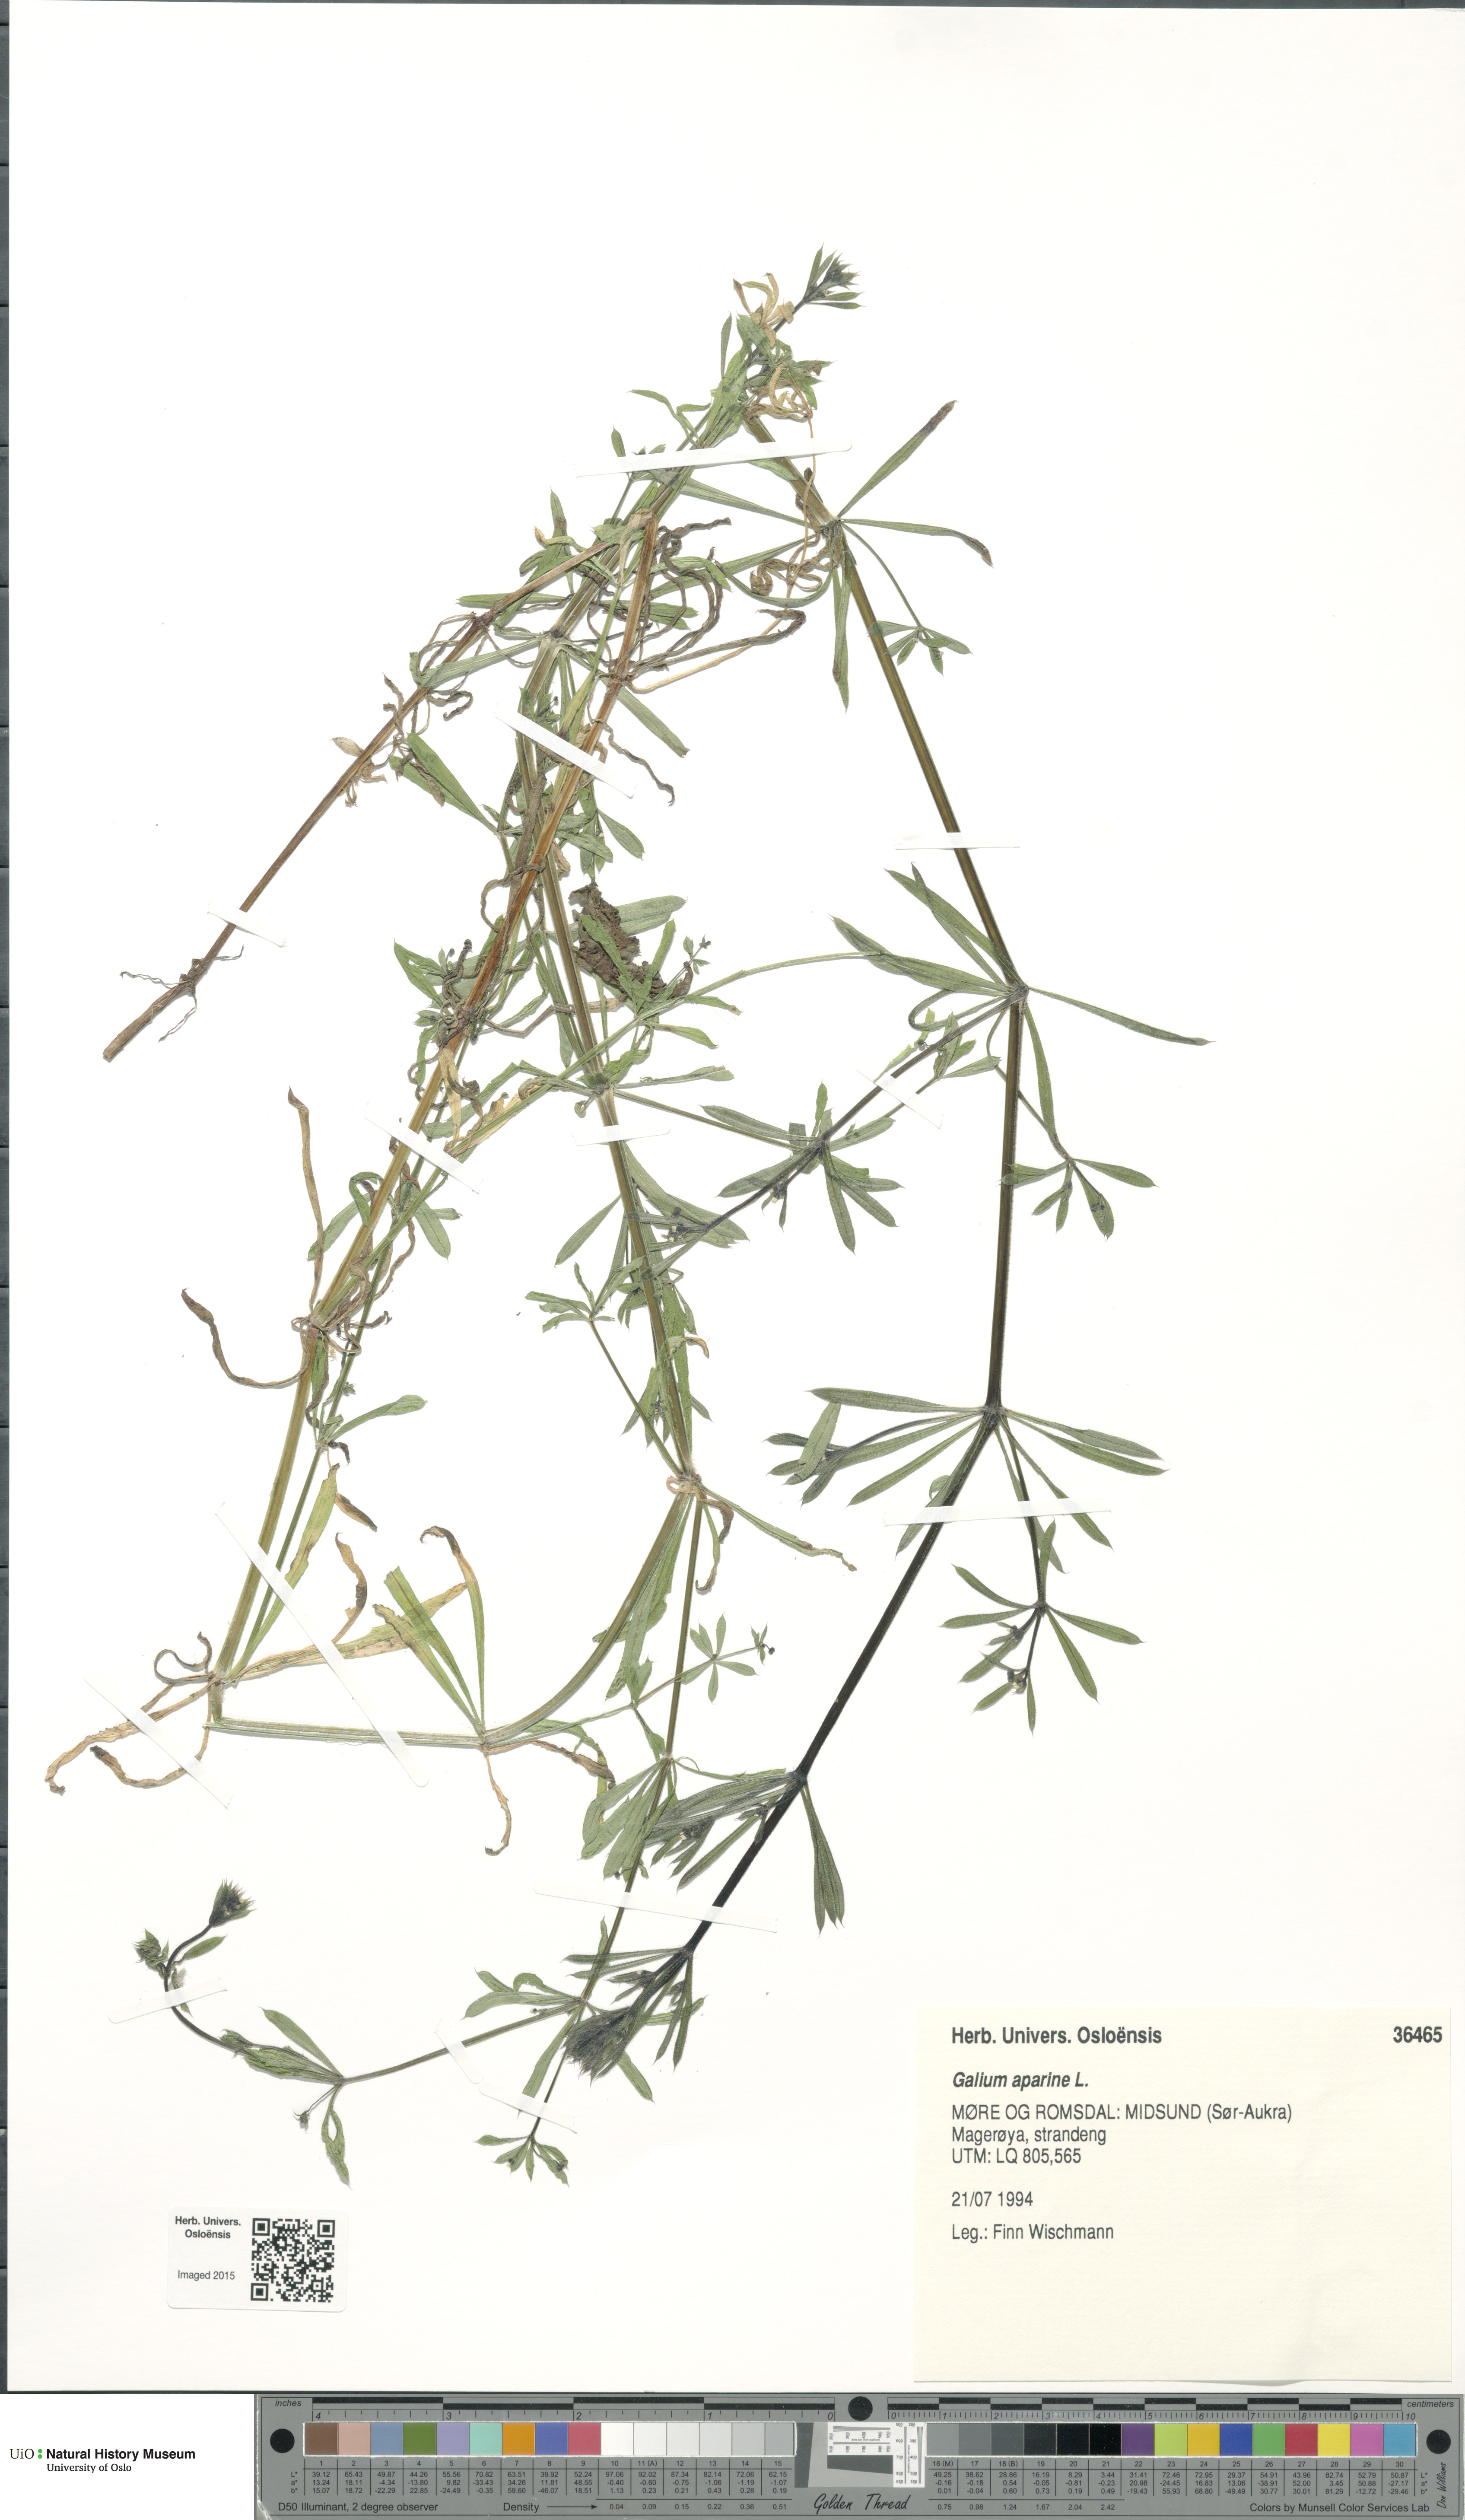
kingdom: Plantae
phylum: Tracheophyta
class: Magnoliopsida
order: Gentianales
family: Rubiaceae
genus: Galium
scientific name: Galium aparine
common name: Cleavers
